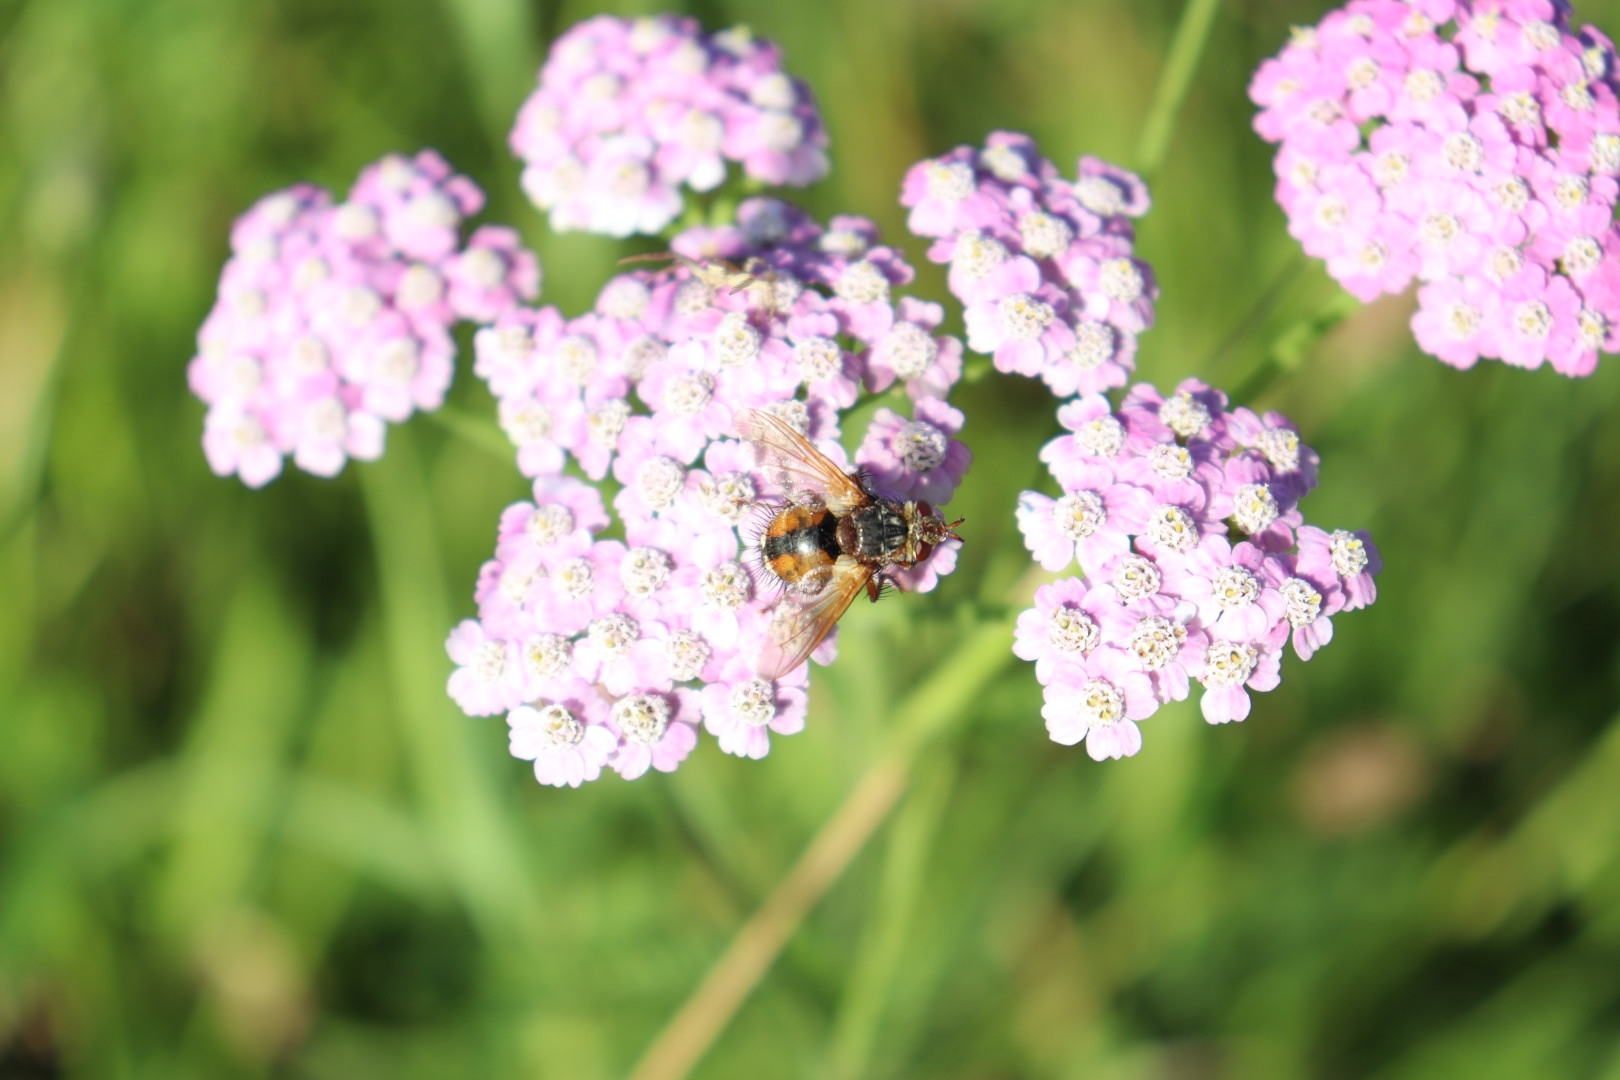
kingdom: Animalia
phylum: Arthropoda
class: Insecta
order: Diptera
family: Tachinidae
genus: Tachina
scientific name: Tachina fera
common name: Mellemfluen oskar
